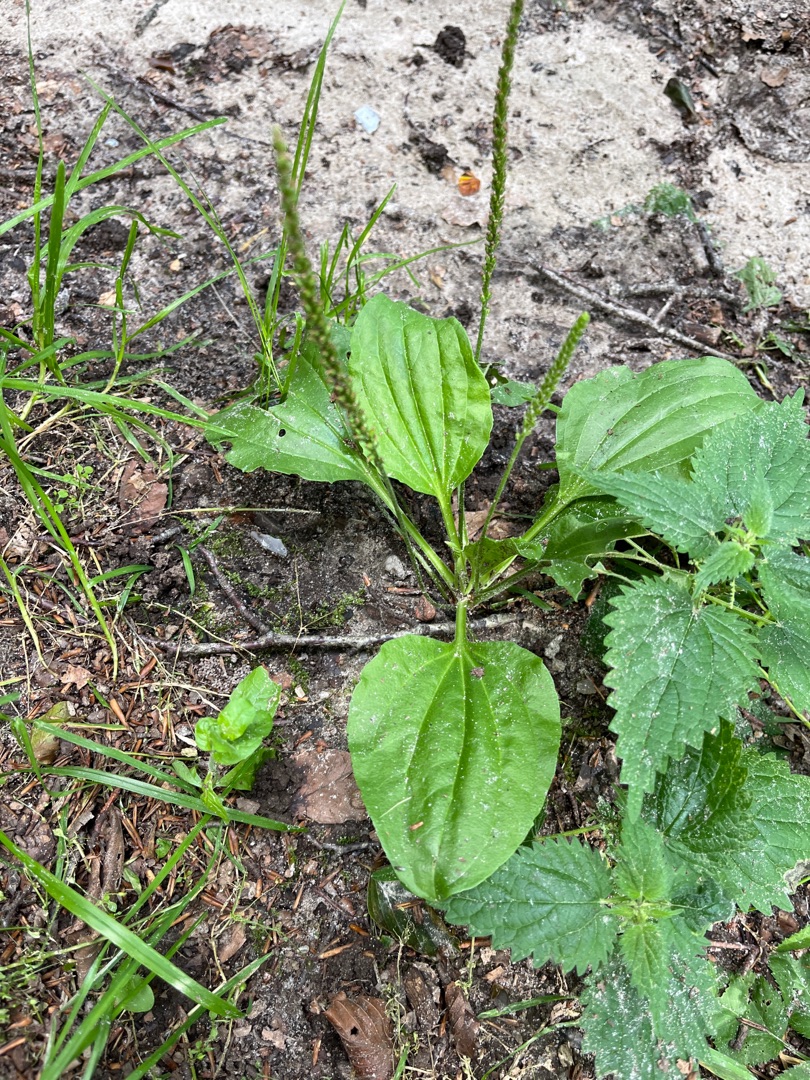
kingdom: Plantae
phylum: Tracheophyta
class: Magnoliopsida
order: Lamiales
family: Plantaginaceae
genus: Plantago
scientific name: Plantago major
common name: Glat vejbred
